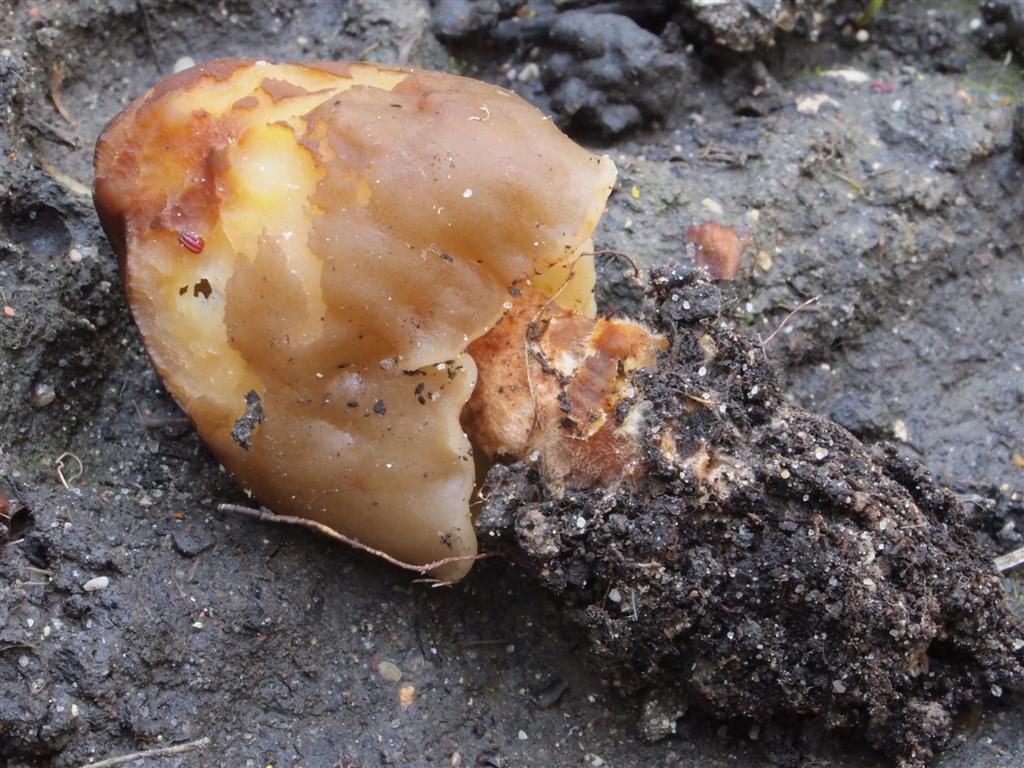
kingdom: Fungi
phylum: Ascomycota
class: Pezizomycetes
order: Pezizales
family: Morchellaceae
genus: Verpa
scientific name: Verpa conica
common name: glat klokkemorkel
